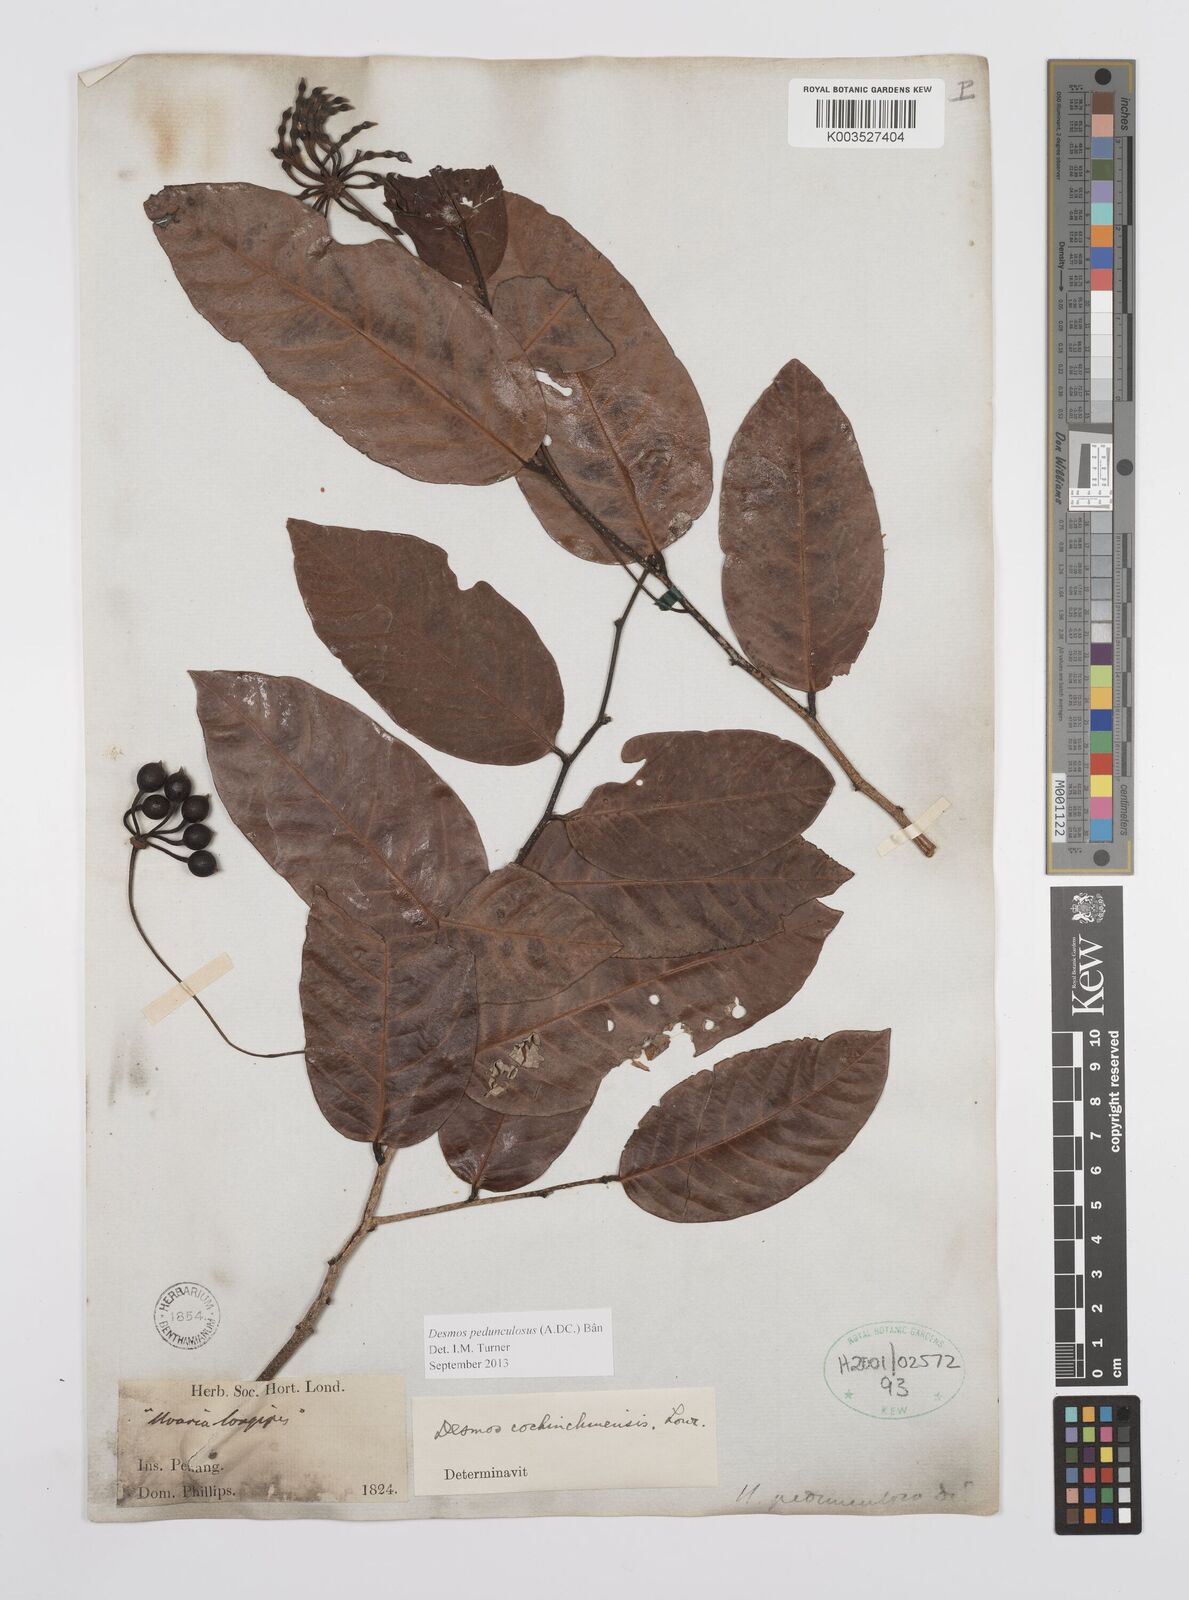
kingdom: Plantae
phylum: Tracheophyta
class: Magnoliopsida
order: Magnoliales
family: Annonaceae
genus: Desmos
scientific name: Desmos cochinchinensis
